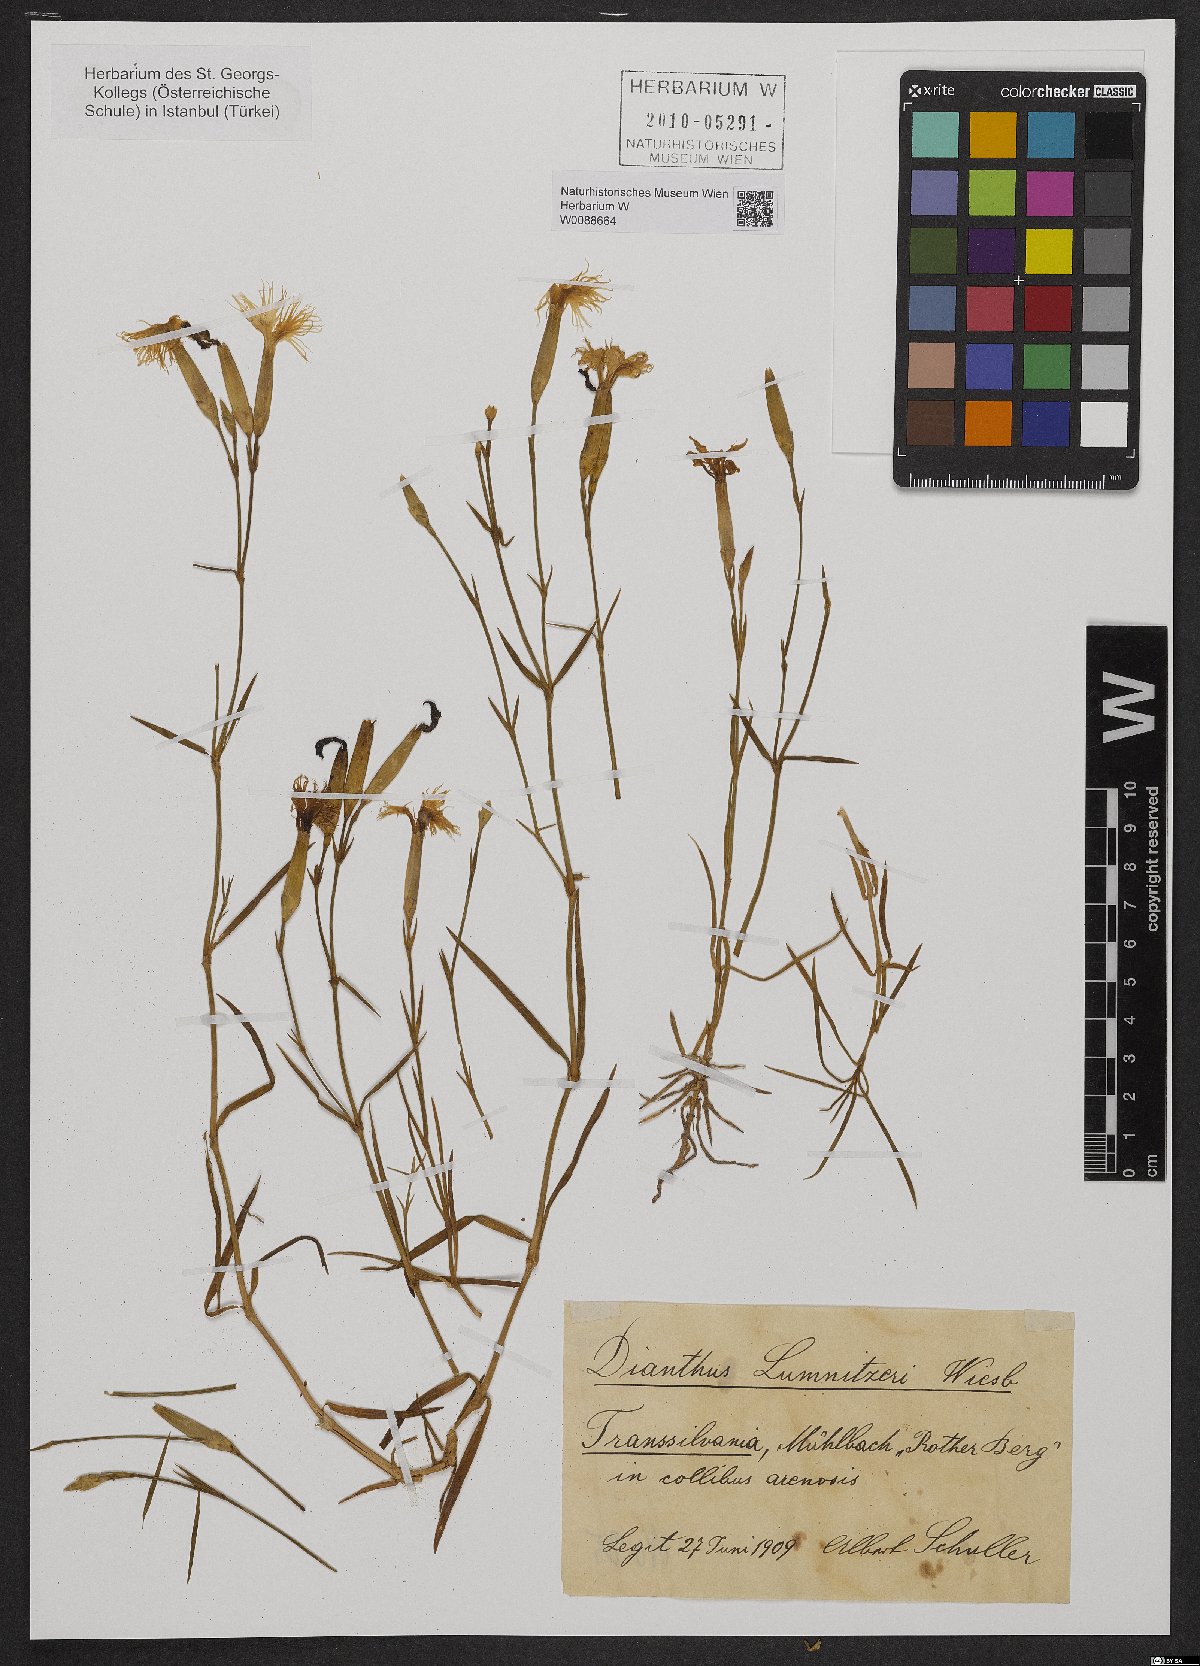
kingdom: Plantae
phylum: Tracheophyta
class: Magnoliopsida
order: Caryophyllales
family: Caryophyllaceae
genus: Dianthus
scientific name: Dianthus praecox
